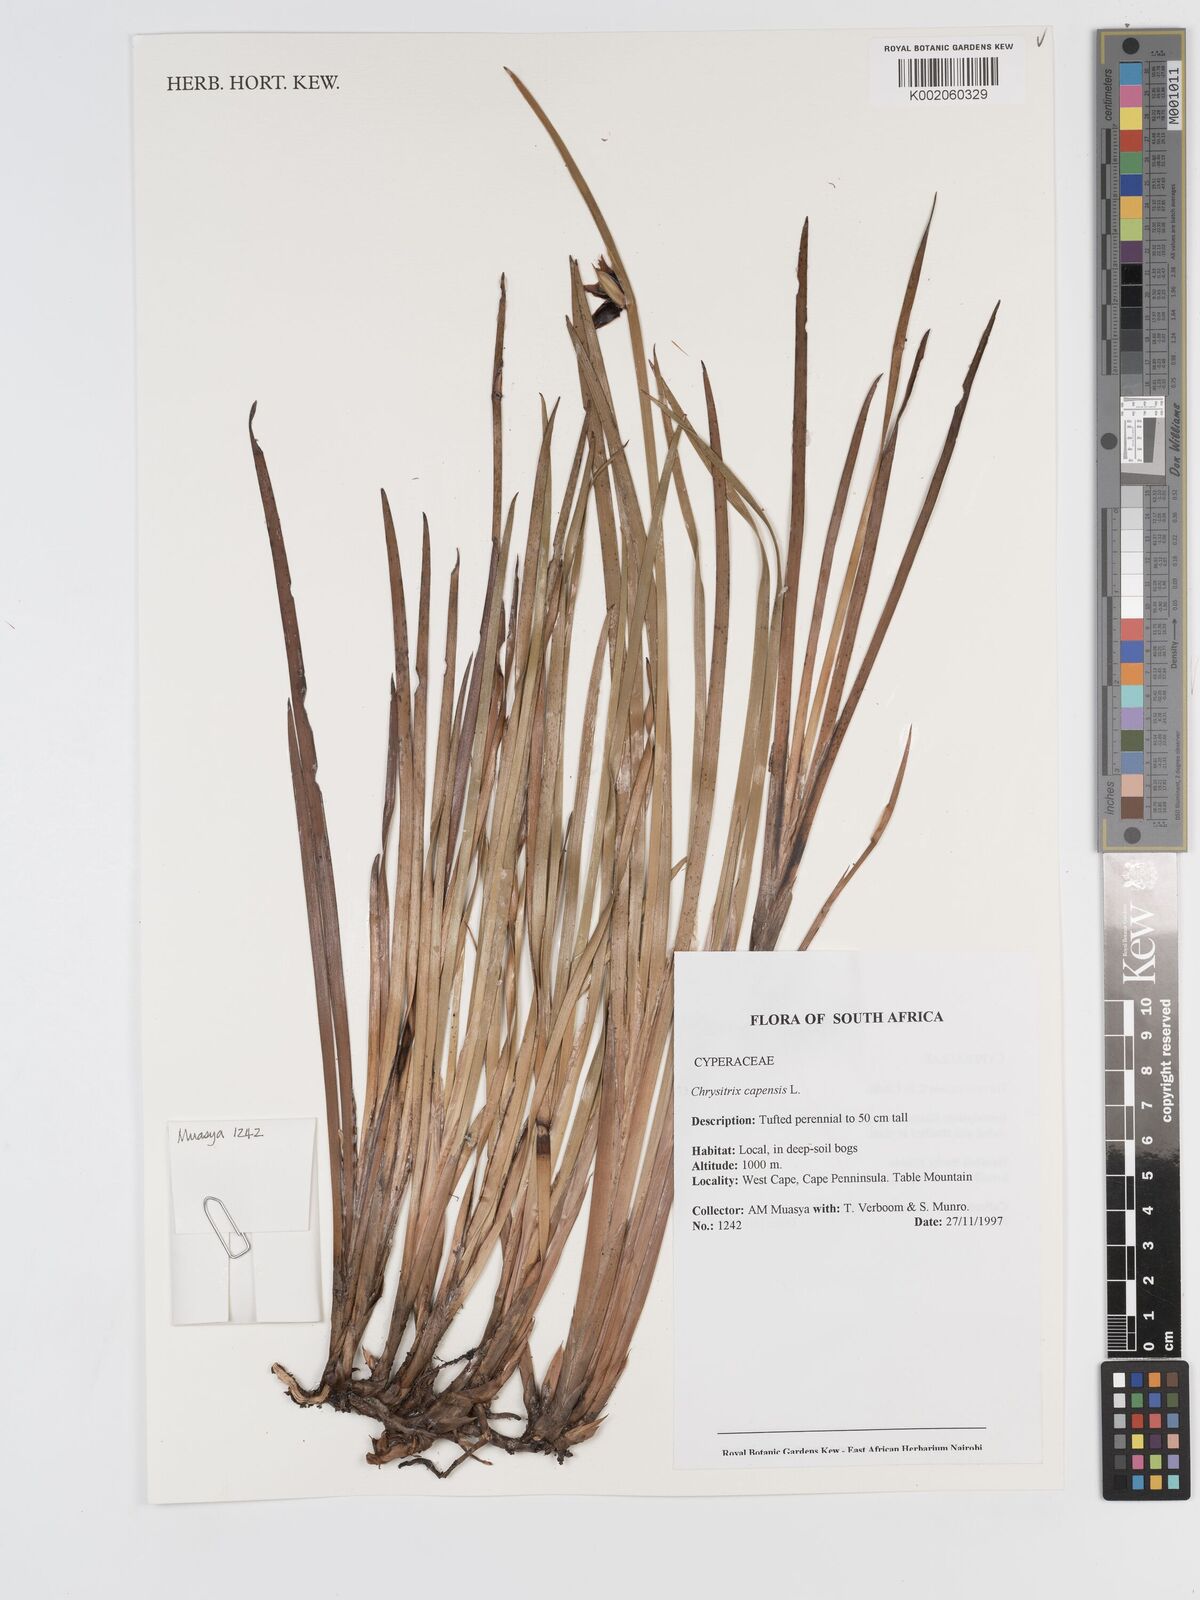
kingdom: Plantae
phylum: Tracheophyta
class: Liliopsida
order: Poales
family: Cyperaceae
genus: Chrysitrix
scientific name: Chrysitrix
